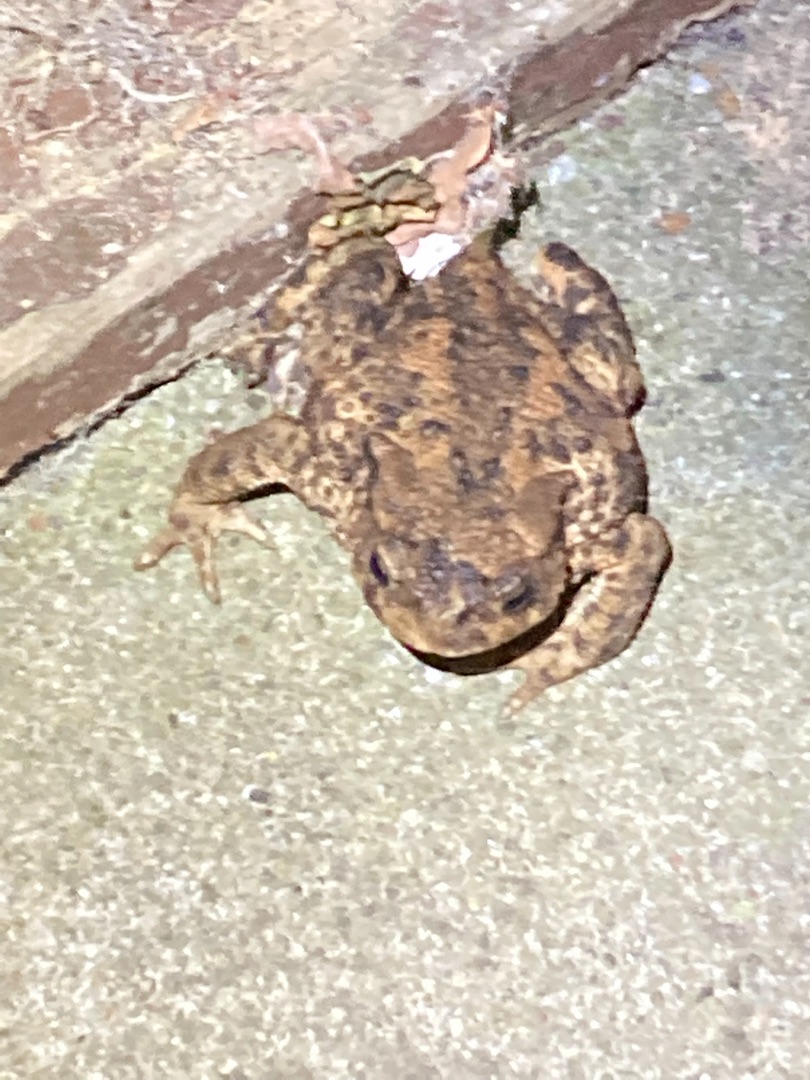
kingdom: Animalia
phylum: Chordata
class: Amphibia
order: Anura
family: Bufonidae
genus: Bufo
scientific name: Bufo bufo
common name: Skrubtudse
